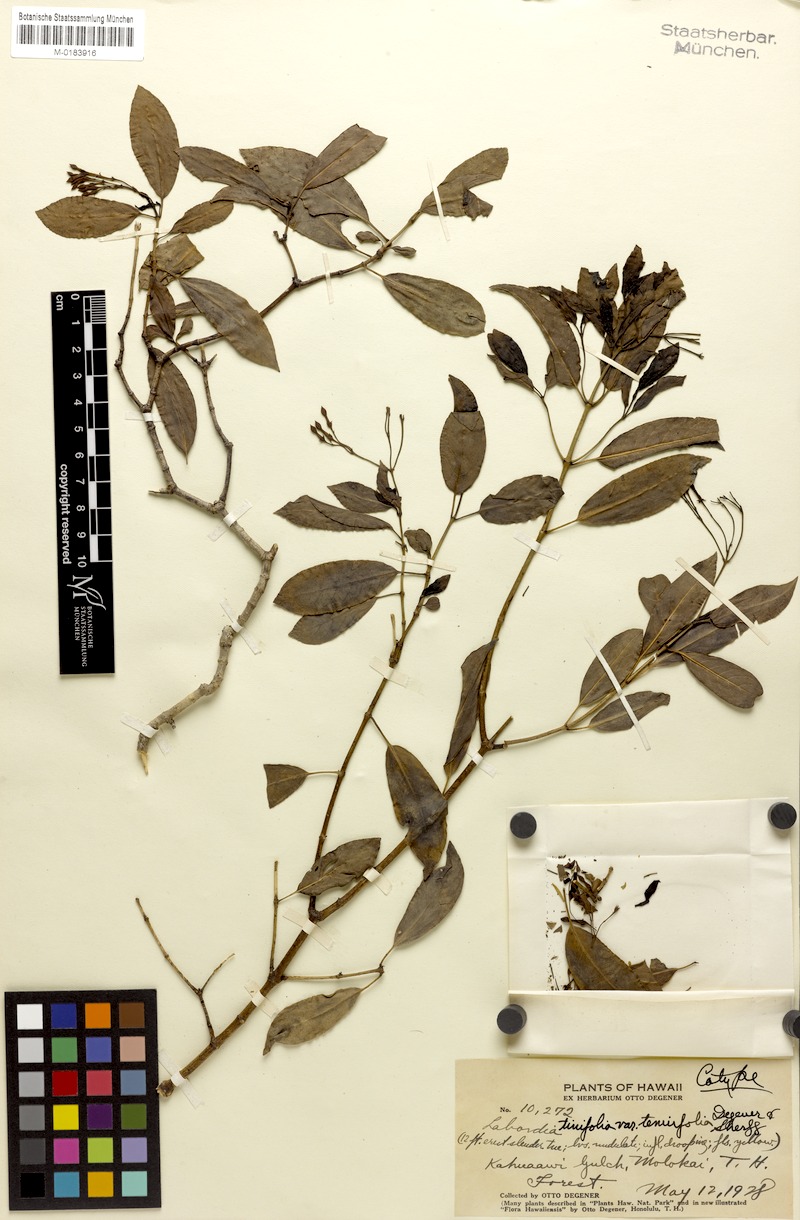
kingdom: Plantae
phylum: Tracheophyta
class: Magnoliopsida
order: Gentianales
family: Loganiaceae
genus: Geniostoma
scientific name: Geniostoma tinifolium
